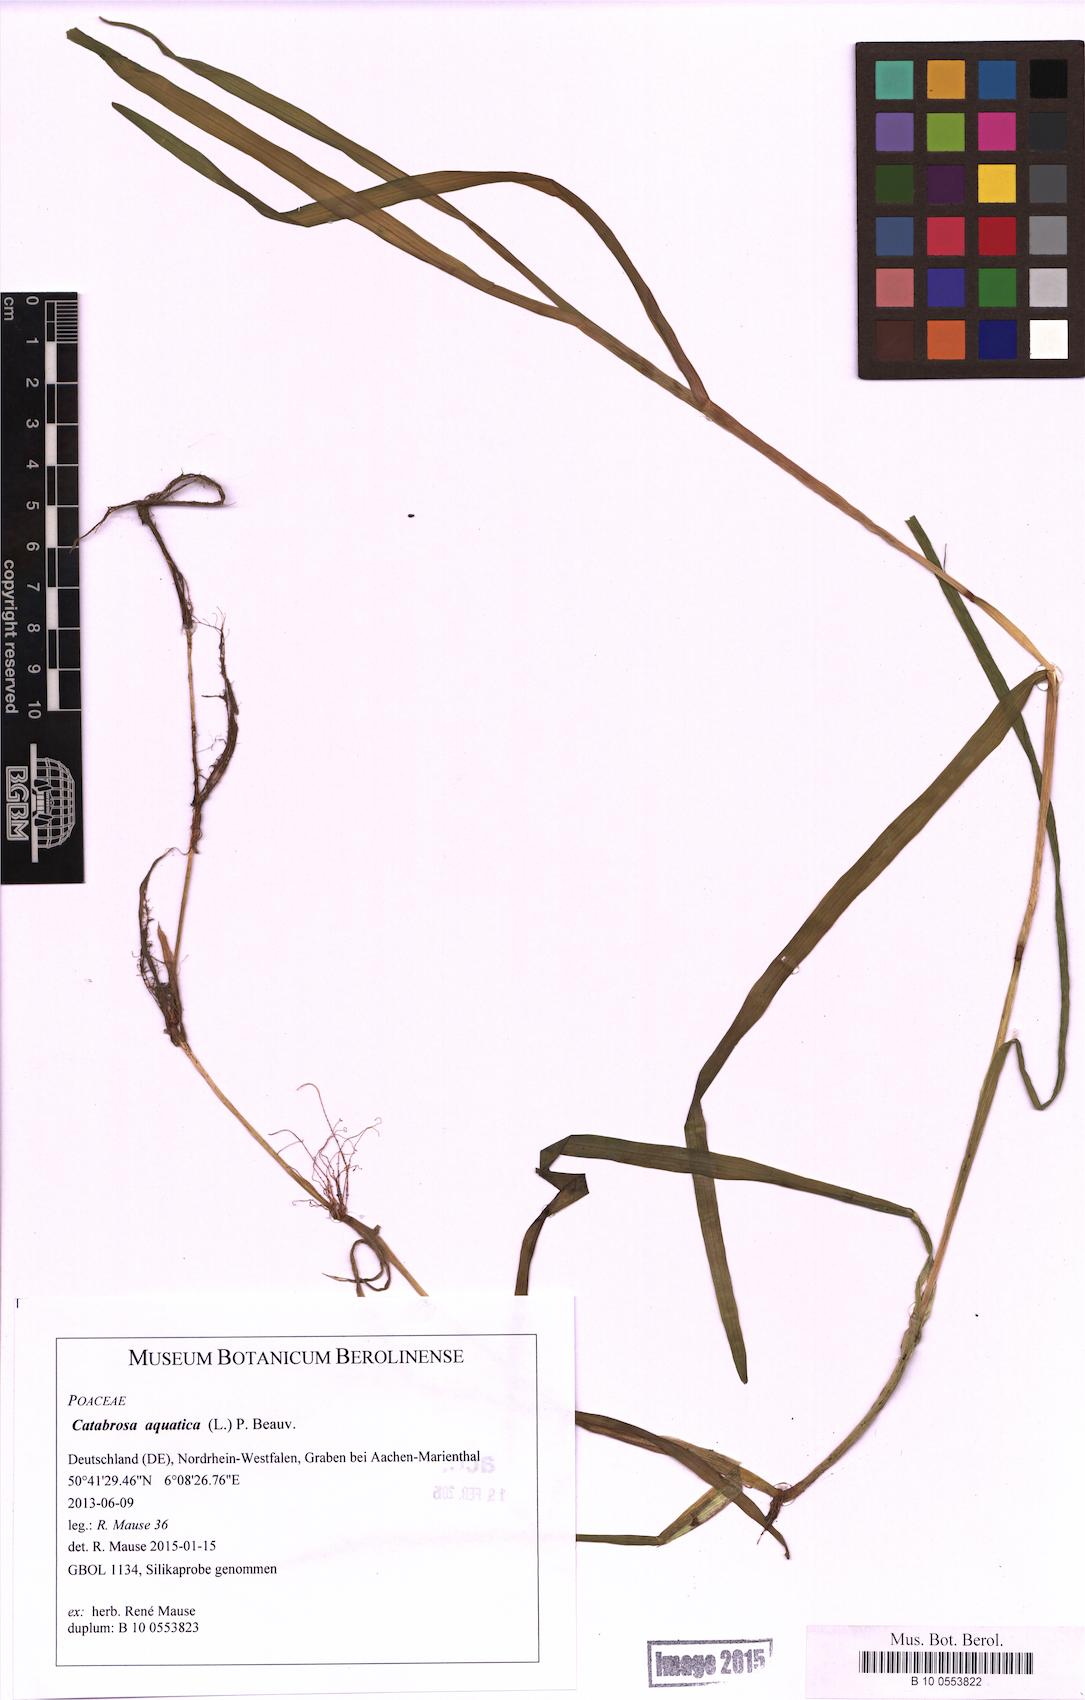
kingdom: Plantae
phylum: Tracheophyta
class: Liliopsida
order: Poales
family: Poaceae
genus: Catabrosa
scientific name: Catabrosa aquatica
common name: Whorl-grass
